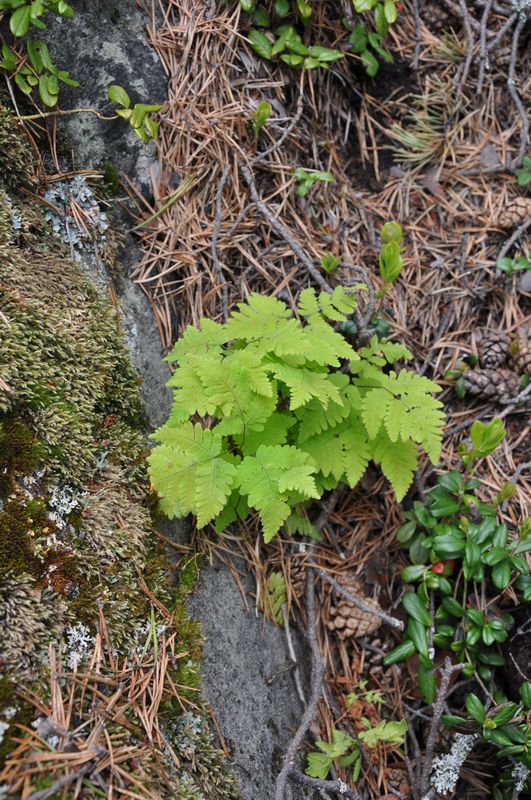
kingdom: Plantae
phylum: Tracheophyta
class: Polypodiopsida
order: Polypodiales
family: Cystopteridaceae
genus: Gymnocarpium
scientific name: Gymnocarpium dryopteris
